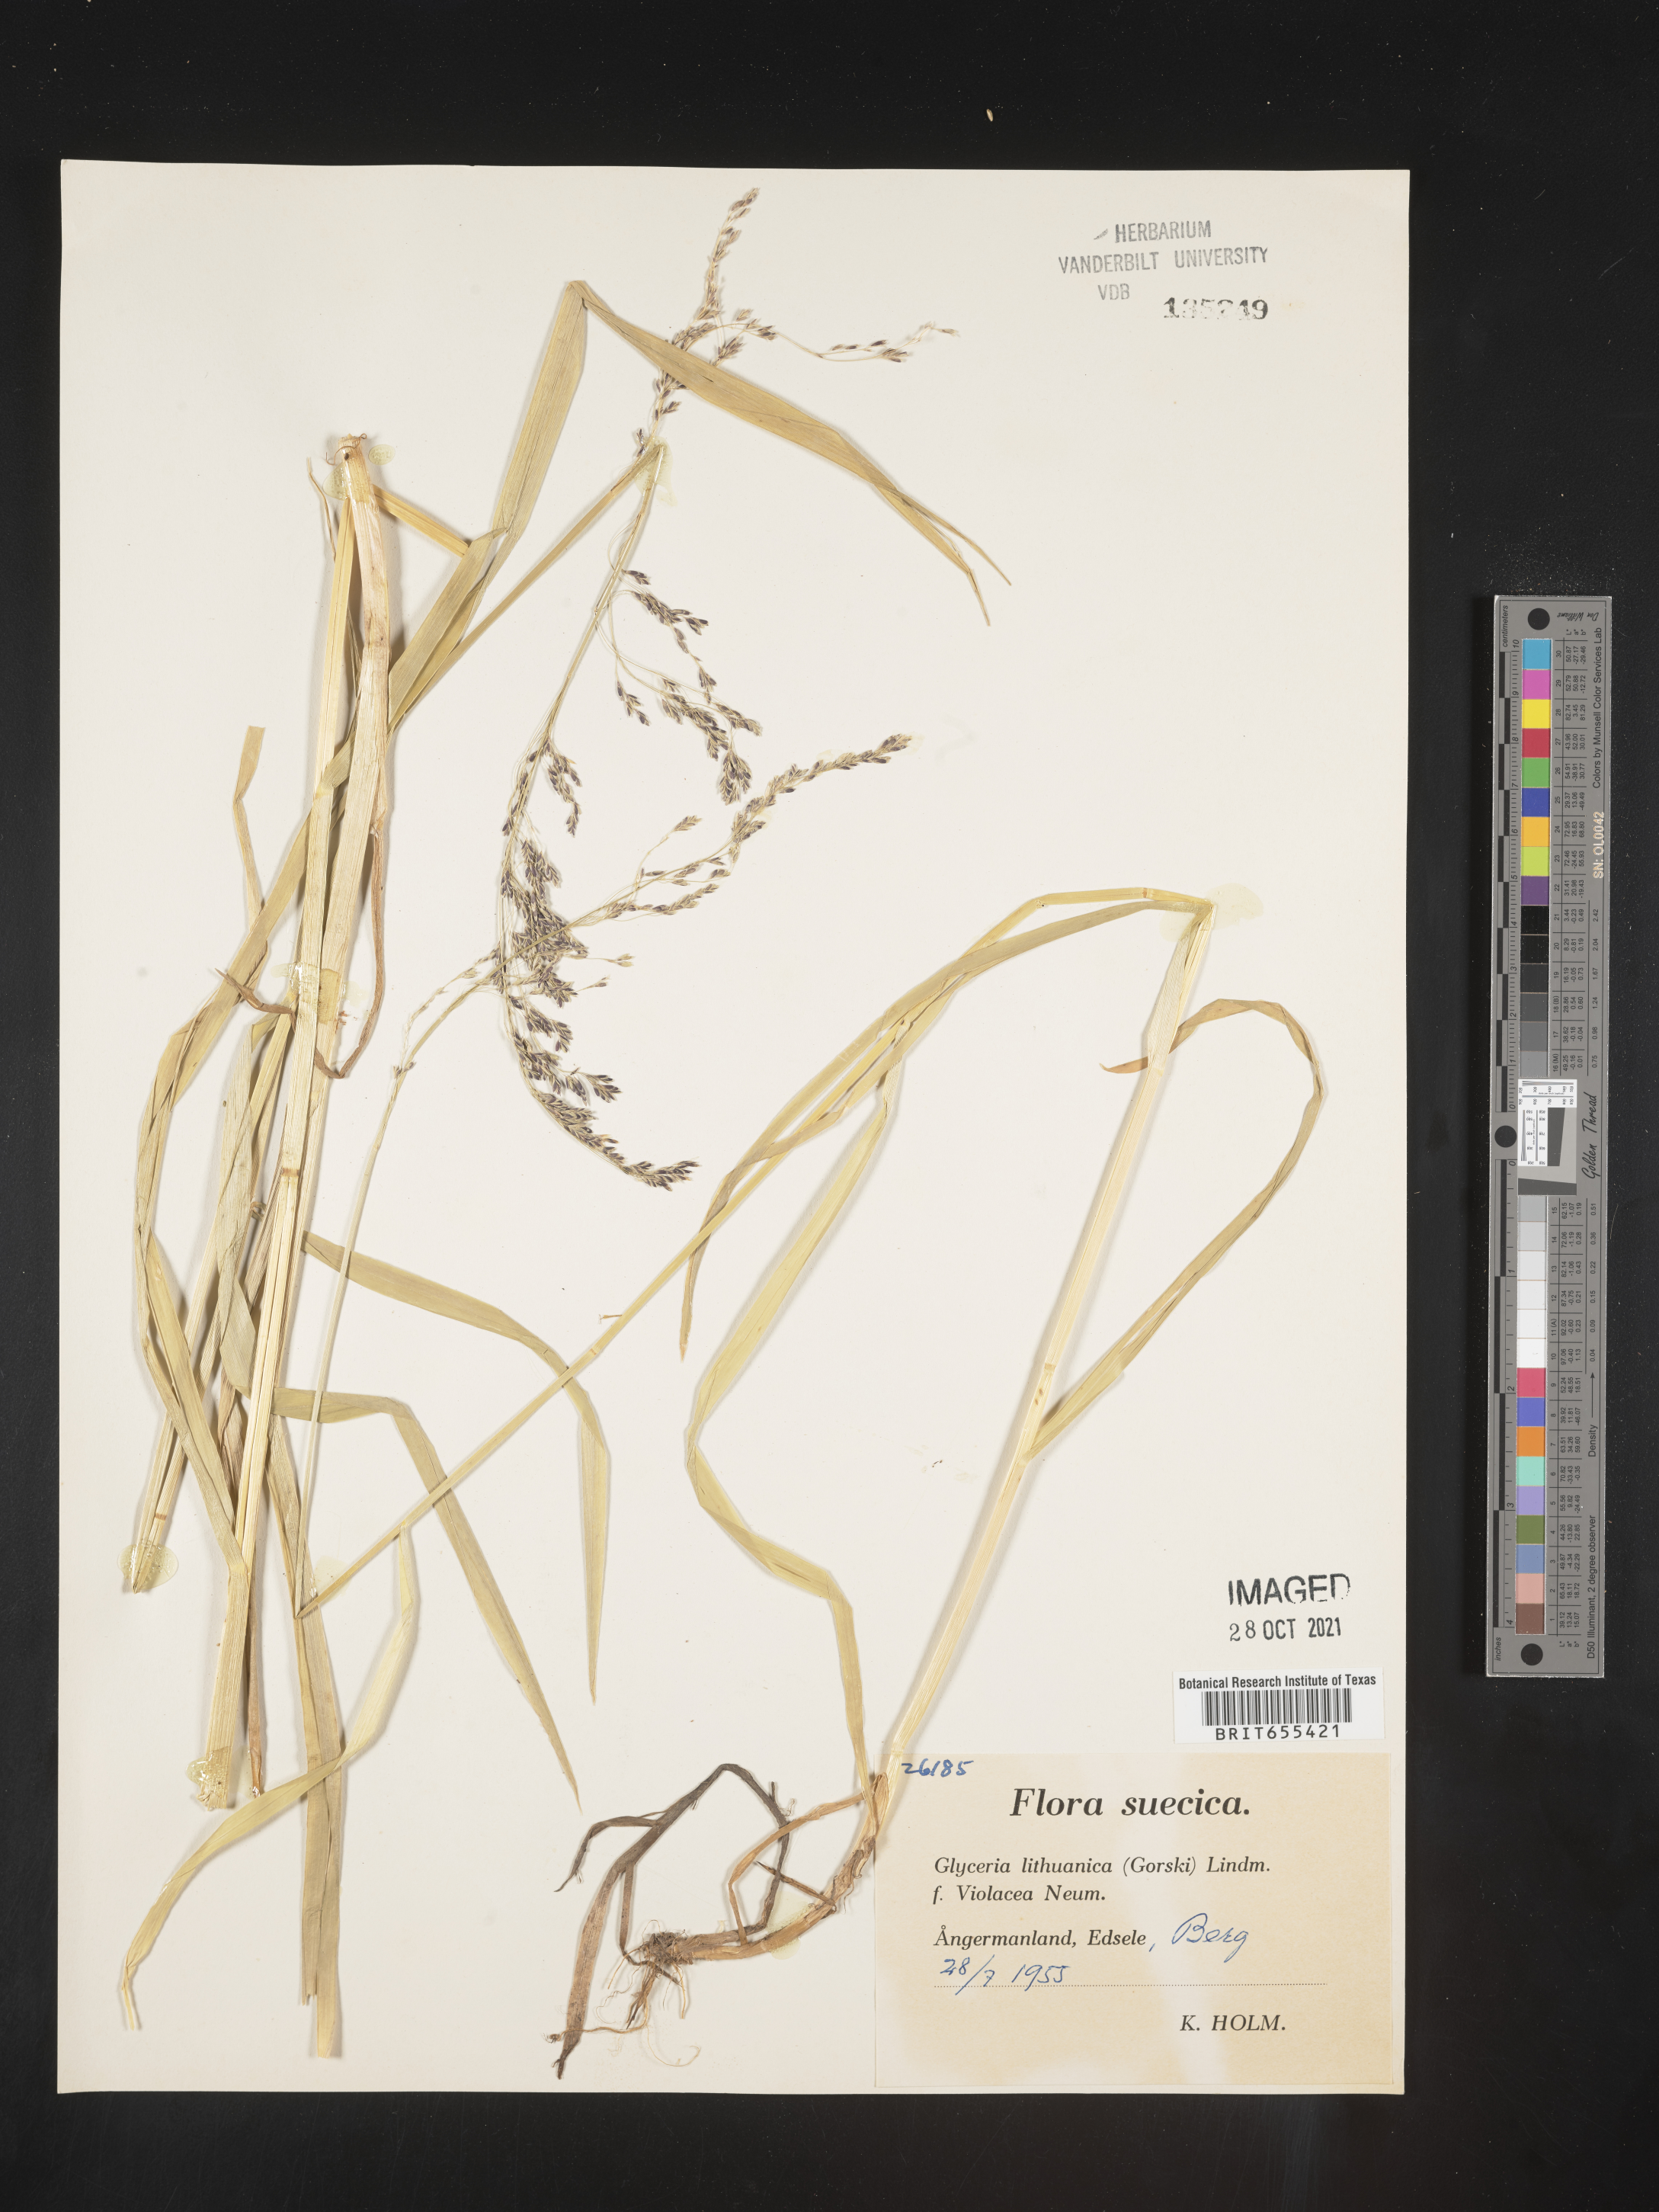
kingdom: Plantae
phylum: Tracheophyta
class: Liliopsida
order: Poales
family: Poaceae
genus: Glyceria
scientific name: Glyceria
